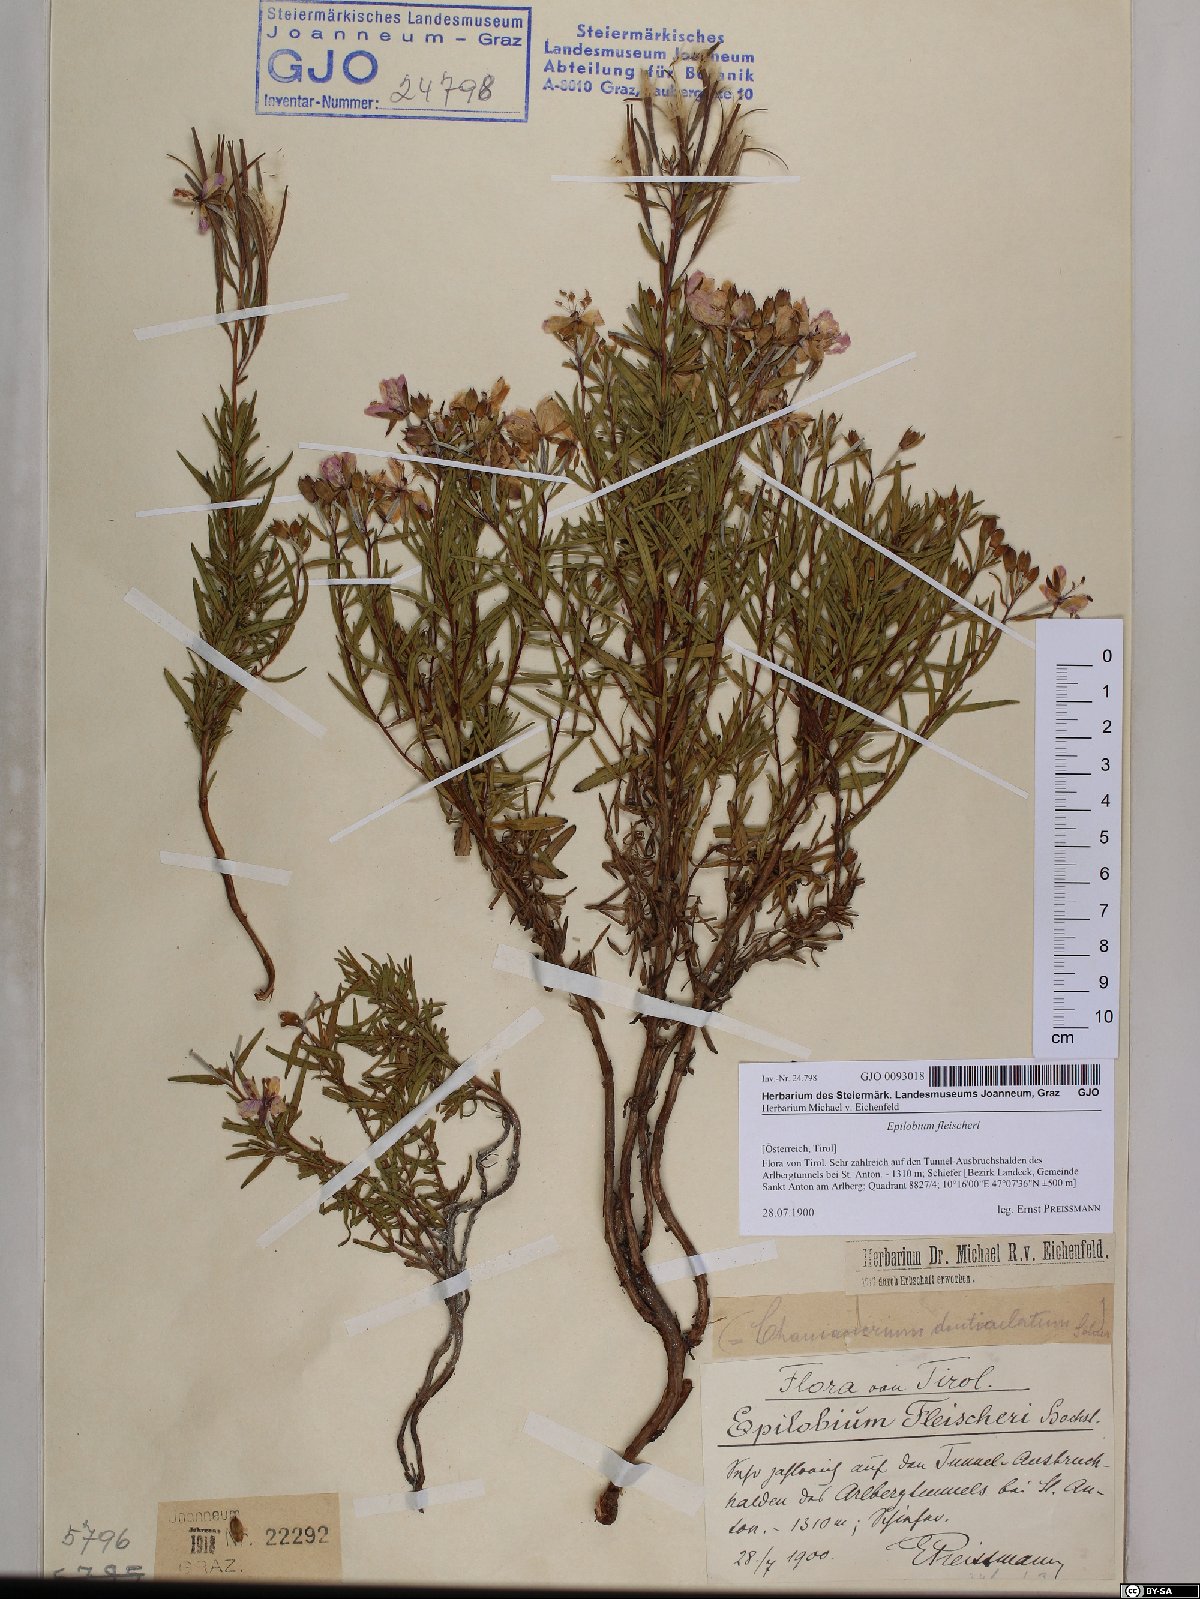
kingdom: Plantae
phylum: Tracheophyta
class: Magnoliopsida
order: Myrtales
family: Onagraceae
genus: Chamaenerion
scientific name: Chamaenerion fleischeri
